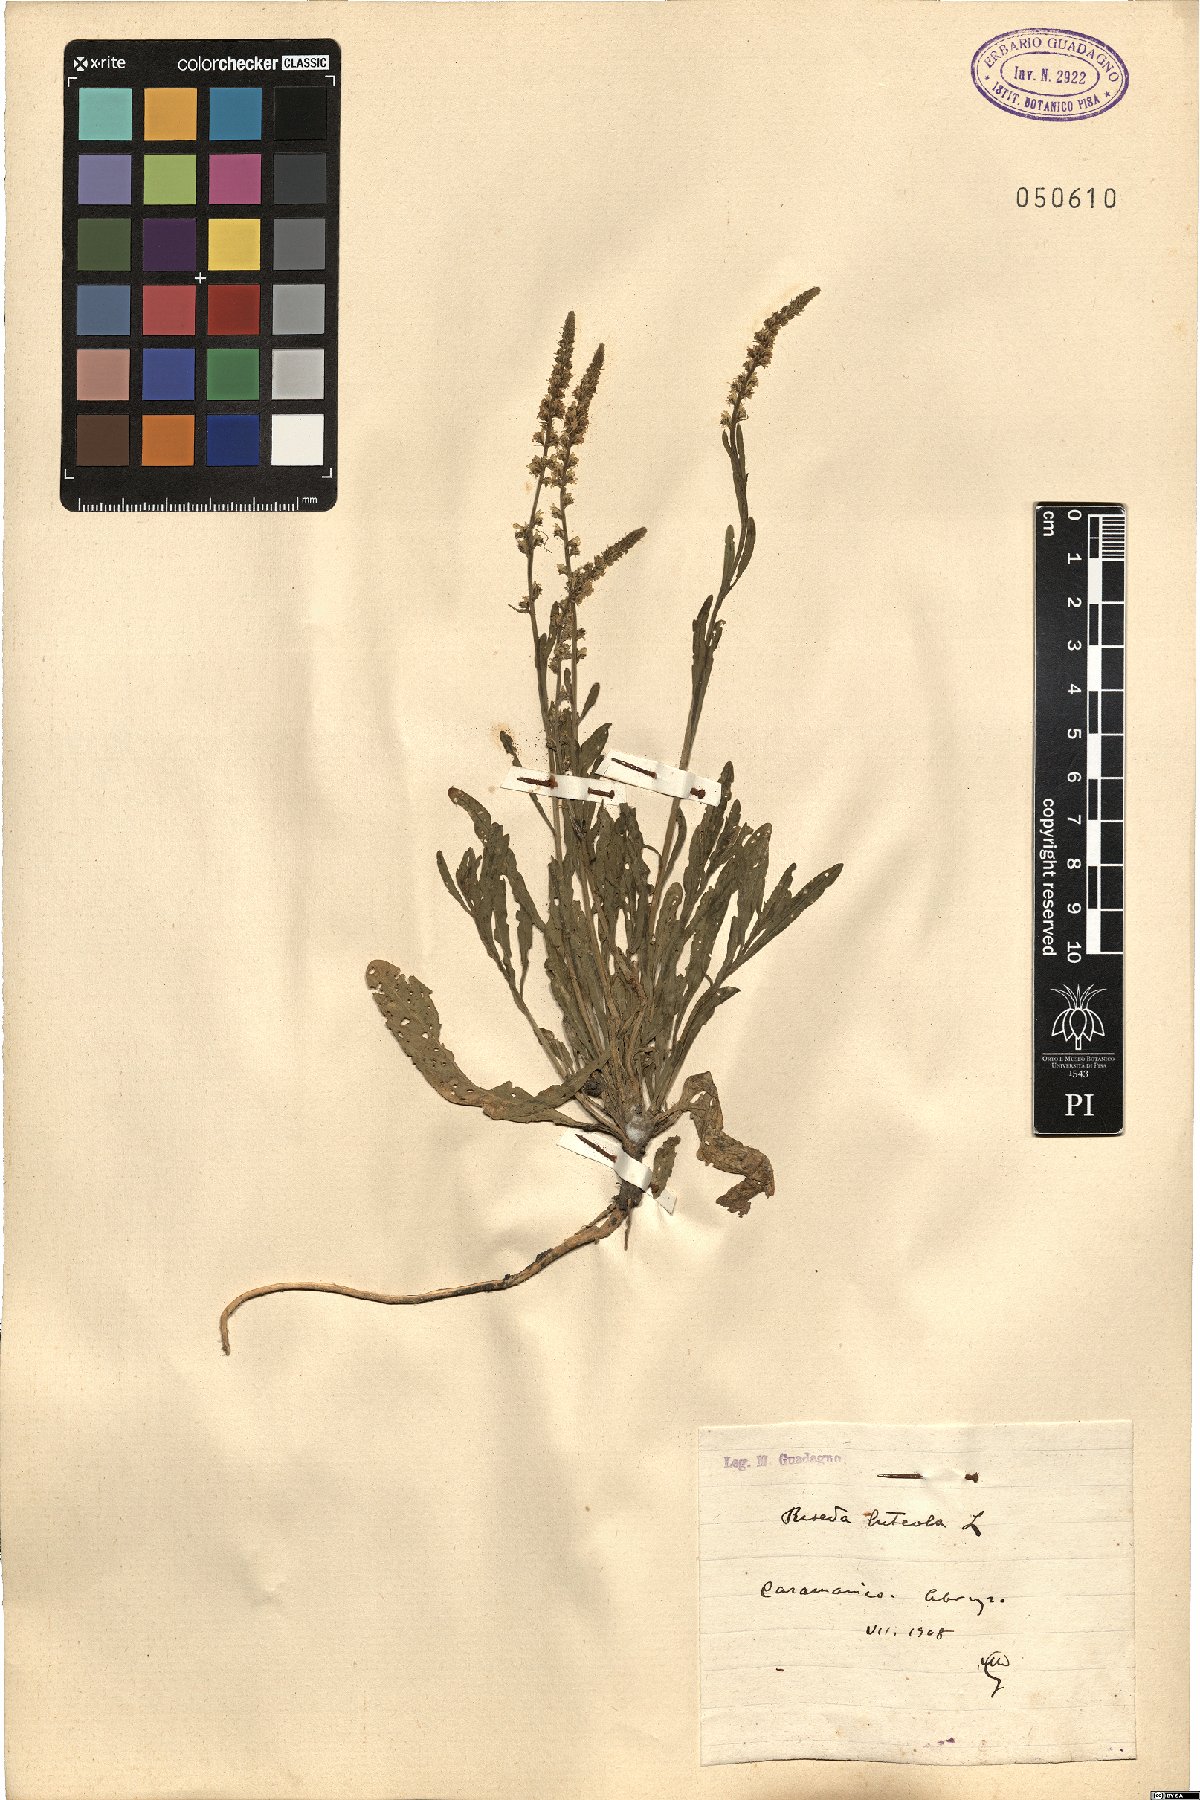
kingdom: Plantae
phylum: Tracheophyta
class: Magnoliopsida
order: Brassicales
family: Resedaceae
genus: Reseda
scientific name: Reseda luteola
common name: Weld
